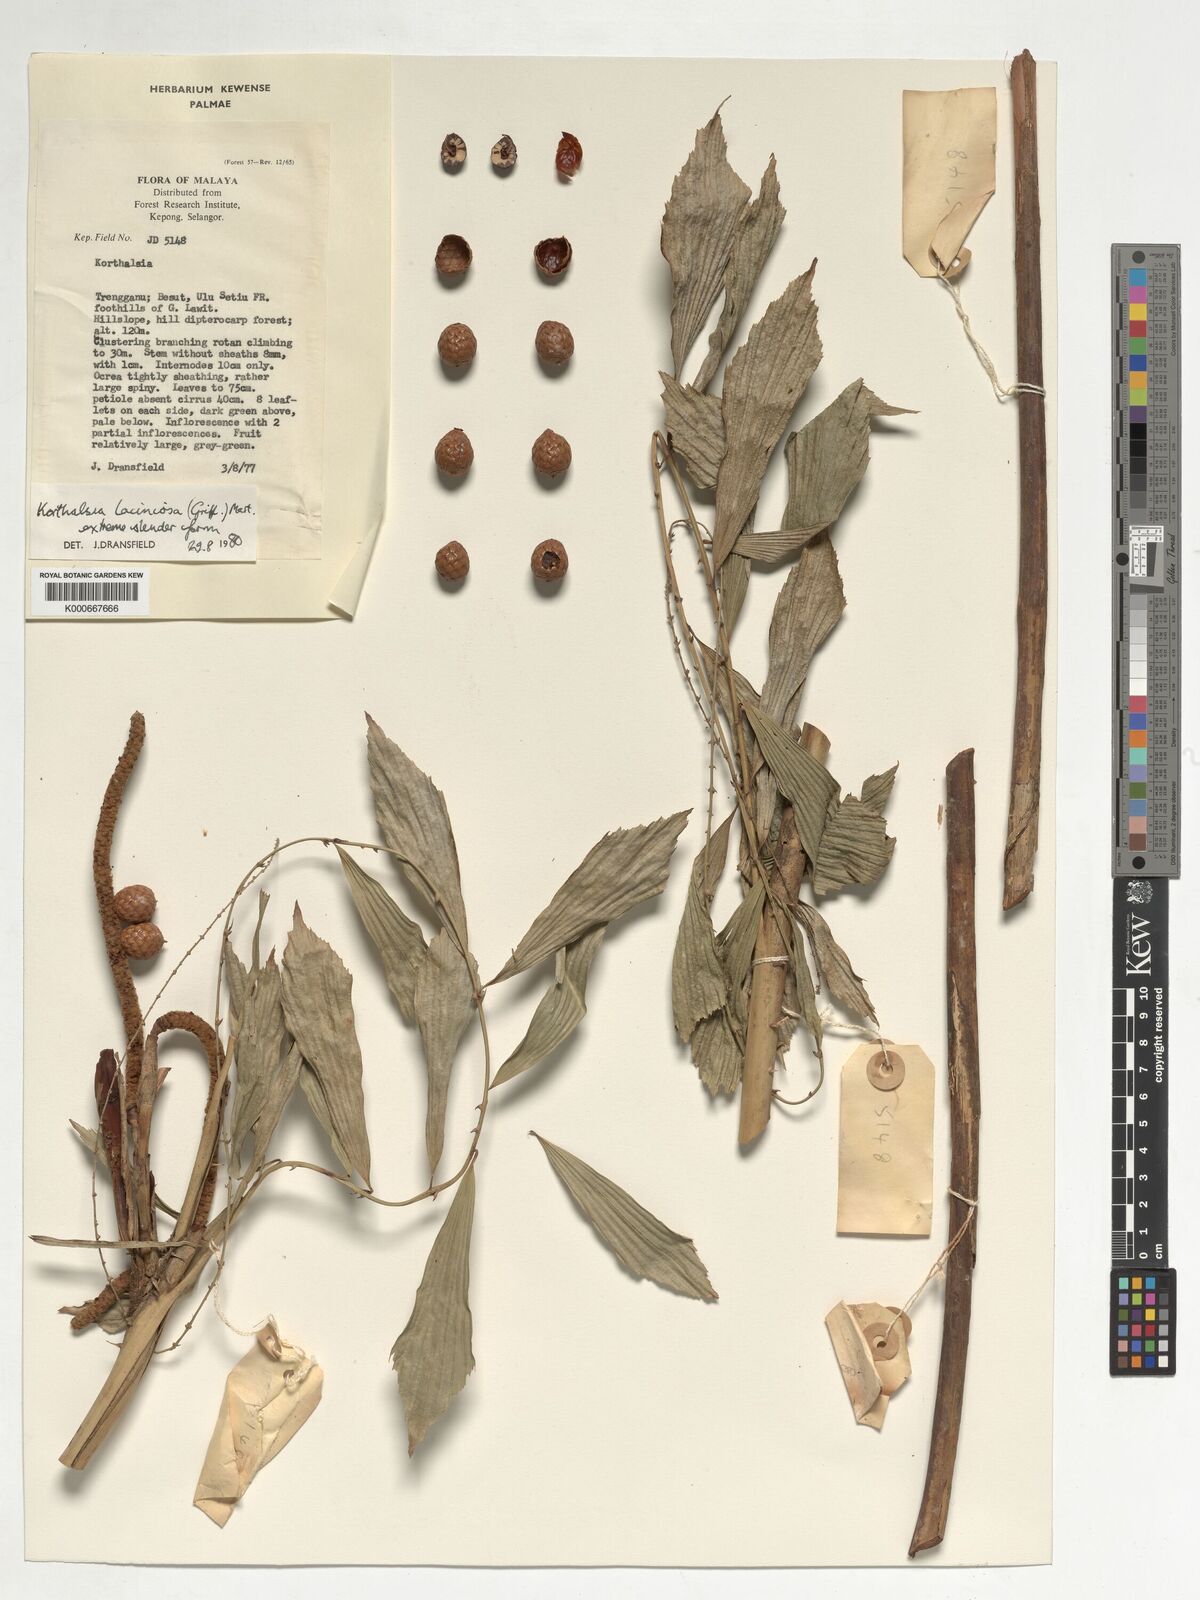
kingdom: Plantae
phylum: Tracheophyta
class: Liliopsida
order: Arecales
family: Arecaceae
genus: Korthalsia
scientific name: Korthalsia laciniosa
